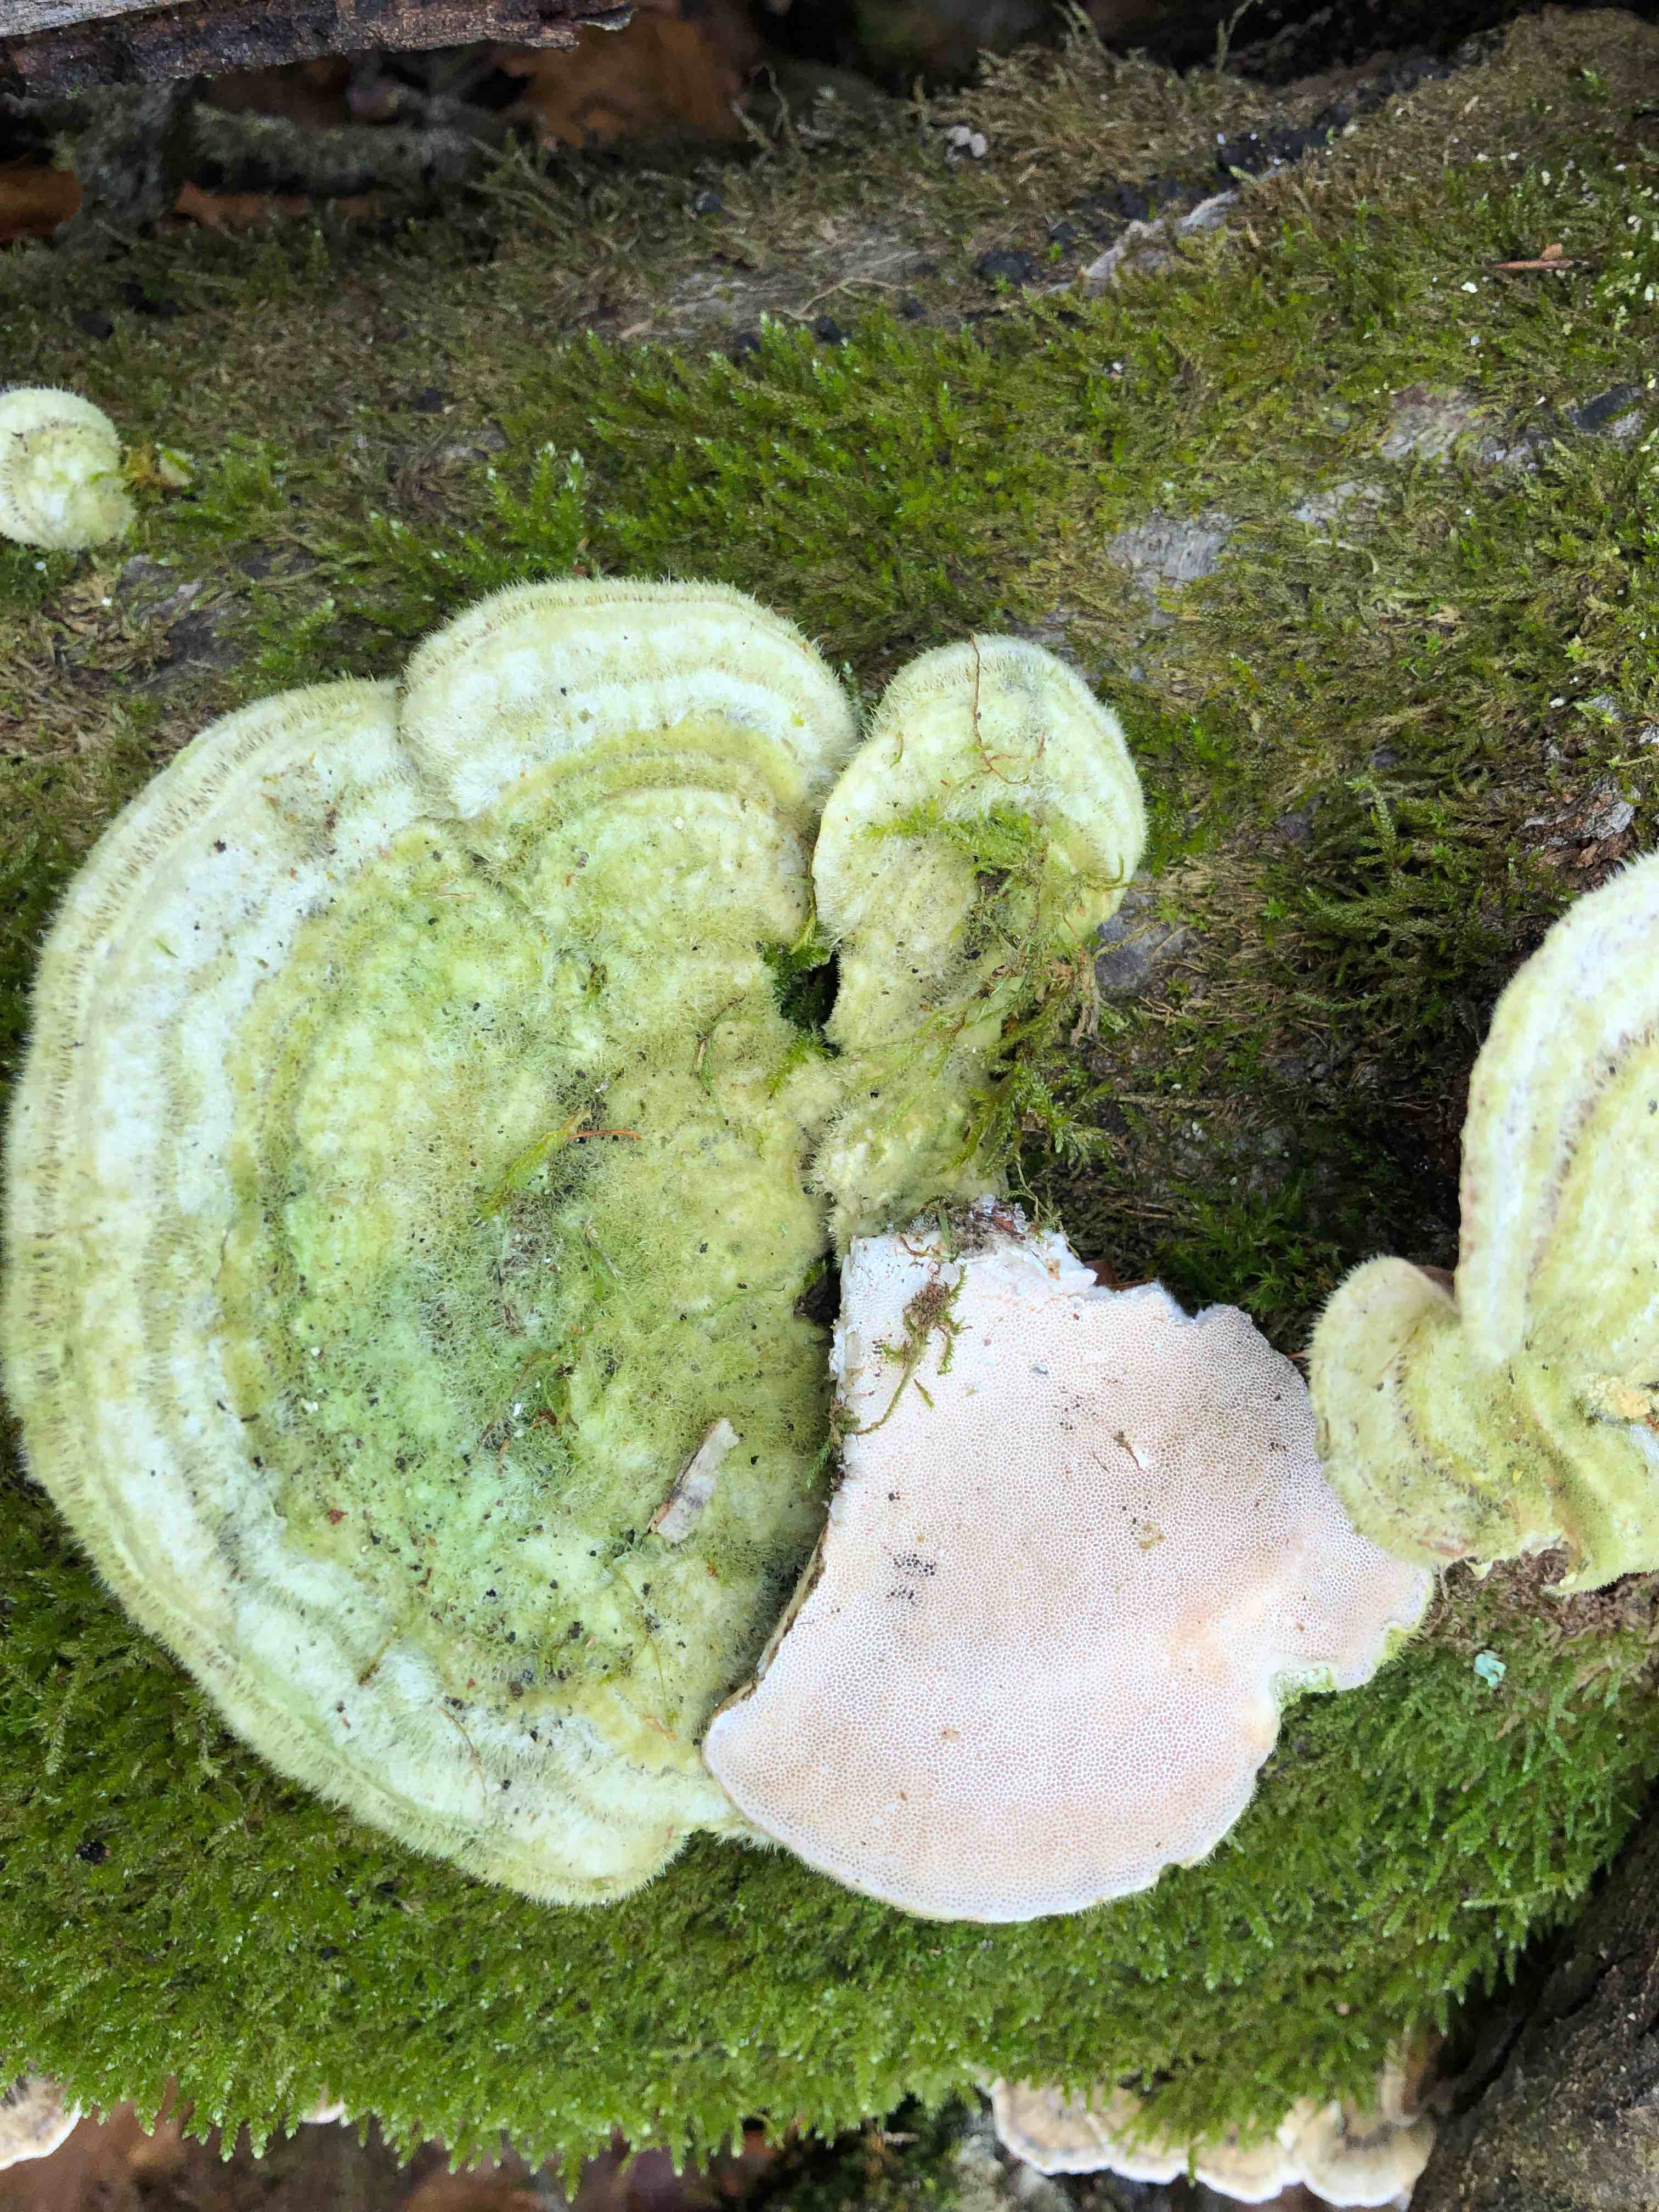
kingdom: Fungi
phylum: Basidiomycota
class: Agaricomycetes
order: Polyporales
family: Polyporaceae
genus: Trametes
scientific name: Trametes hirsuta
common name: håret læderporesvamp
